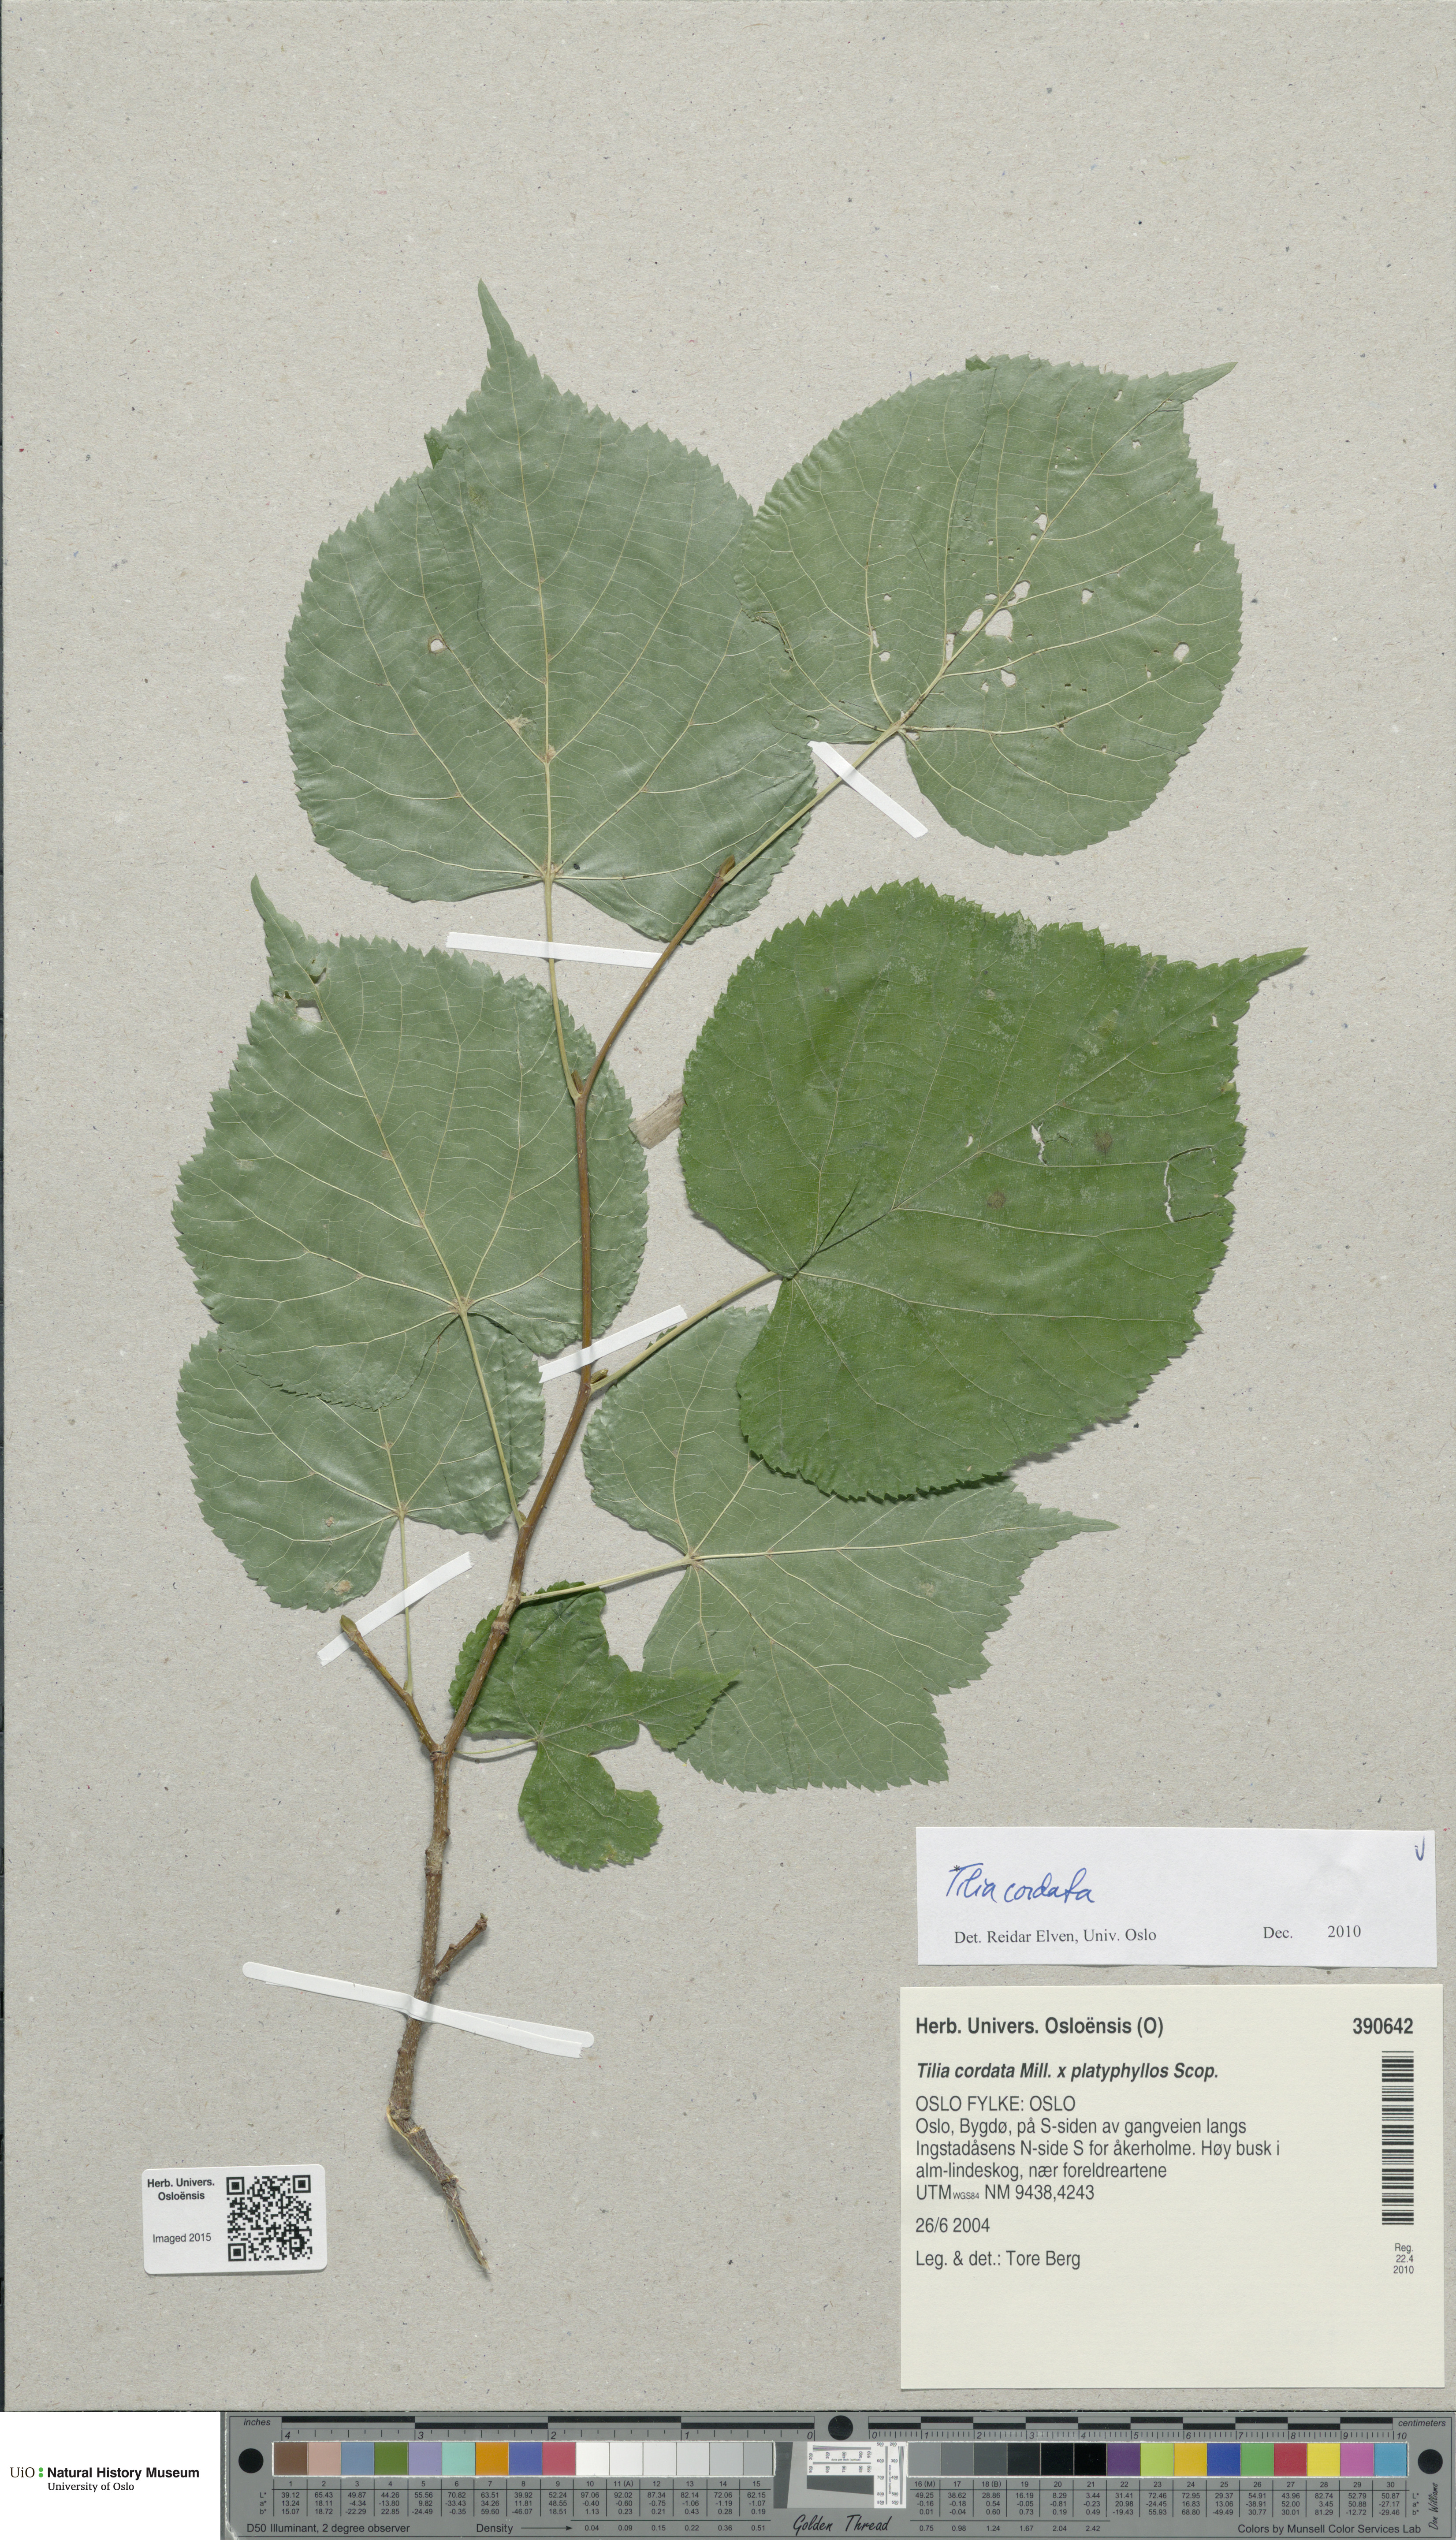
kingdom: Plantae
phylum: Tracheophyta
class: Magnoliopsida
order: Malvales
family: Malvaceae
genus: Tilia
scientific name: Tilia cordata
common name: Small-leaved lime
